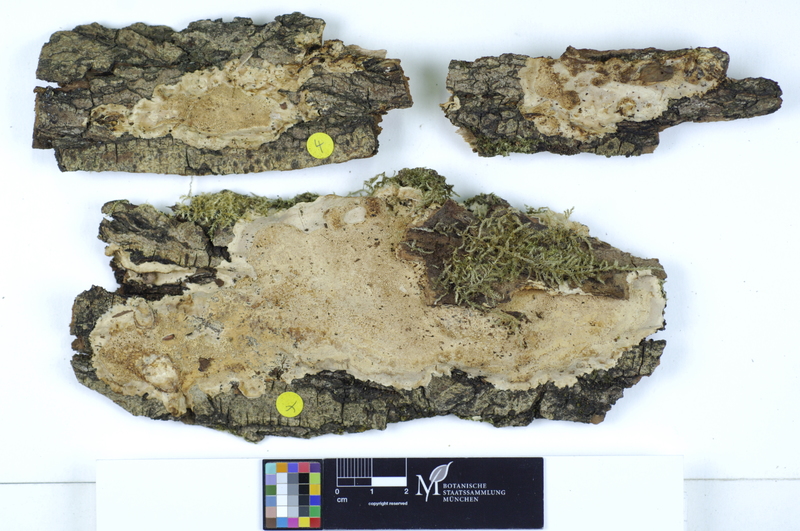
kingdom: Plantae
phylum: Tracheophyta
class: Magnoliopsida
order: Malpighiales
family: Salicaceae
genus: Salix
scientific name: Salix
